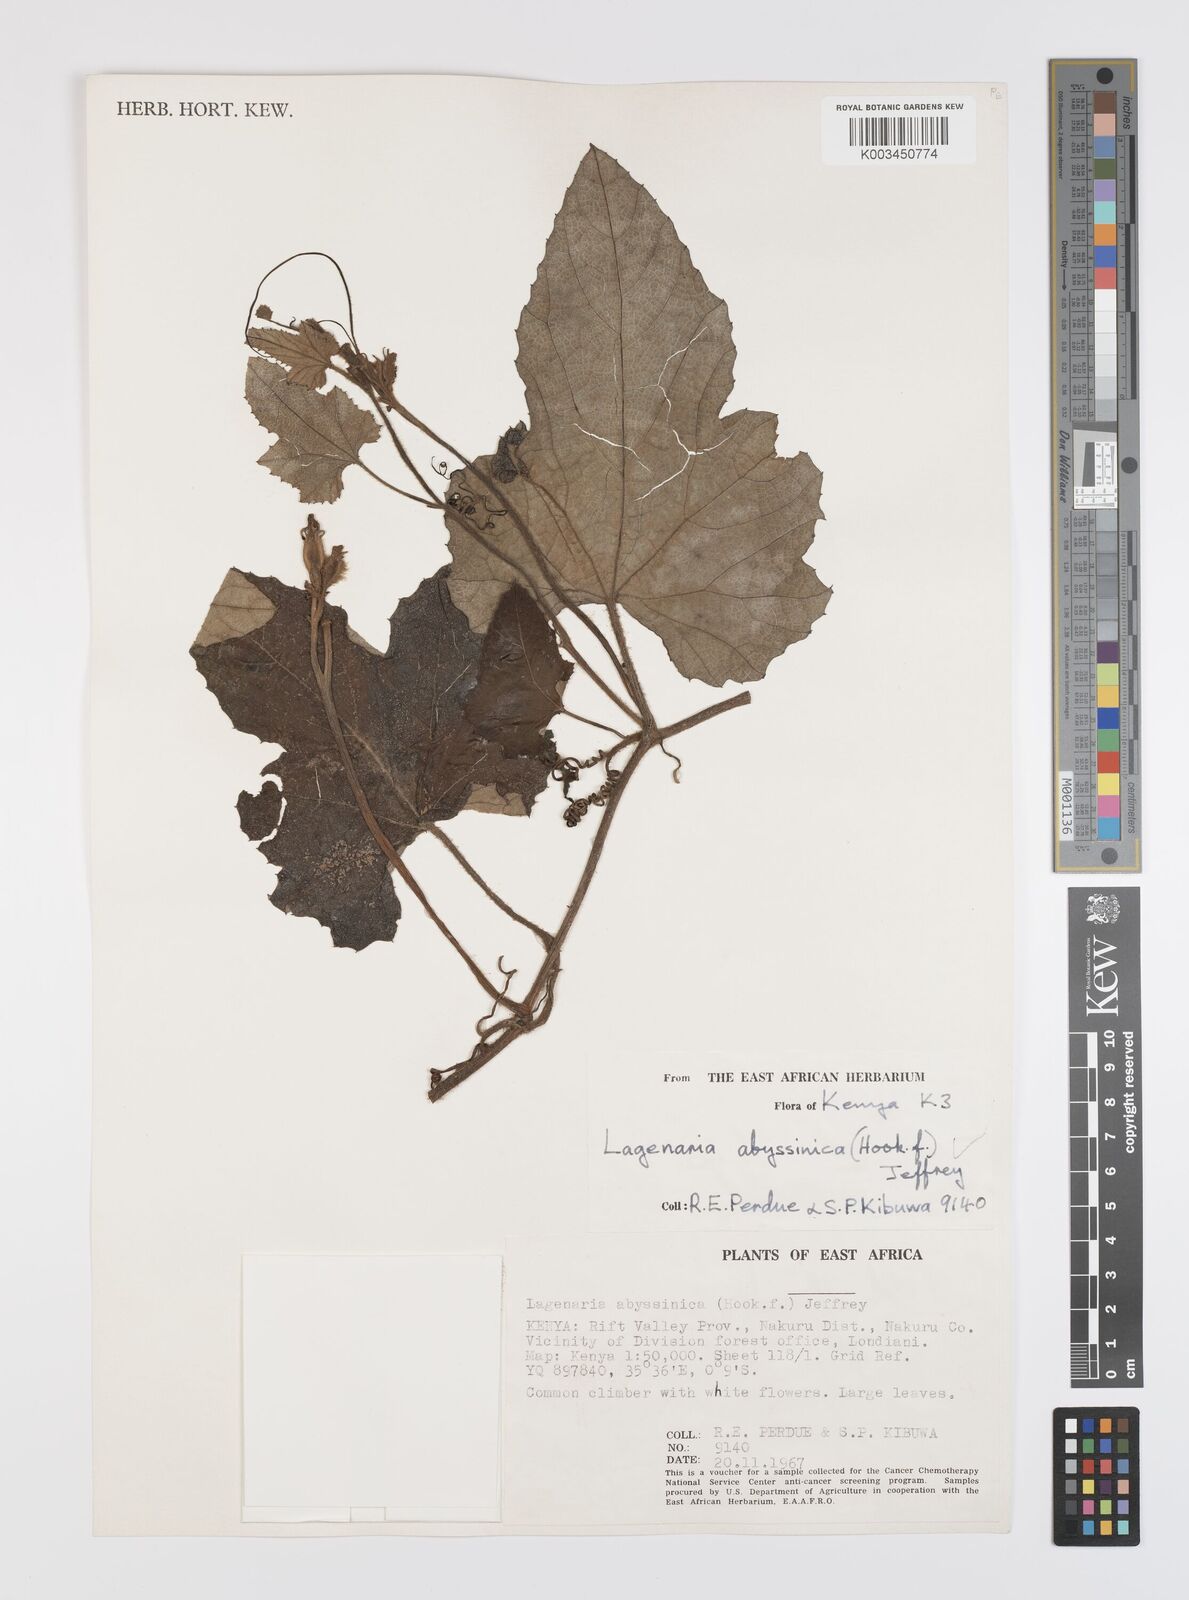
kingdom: Plantae
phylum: Tracheophyta
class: Magnoliopsida
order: Cucurbitales
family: Cucurbitaceae
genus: Lagenaria
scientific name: Lagenaria abyssinica
